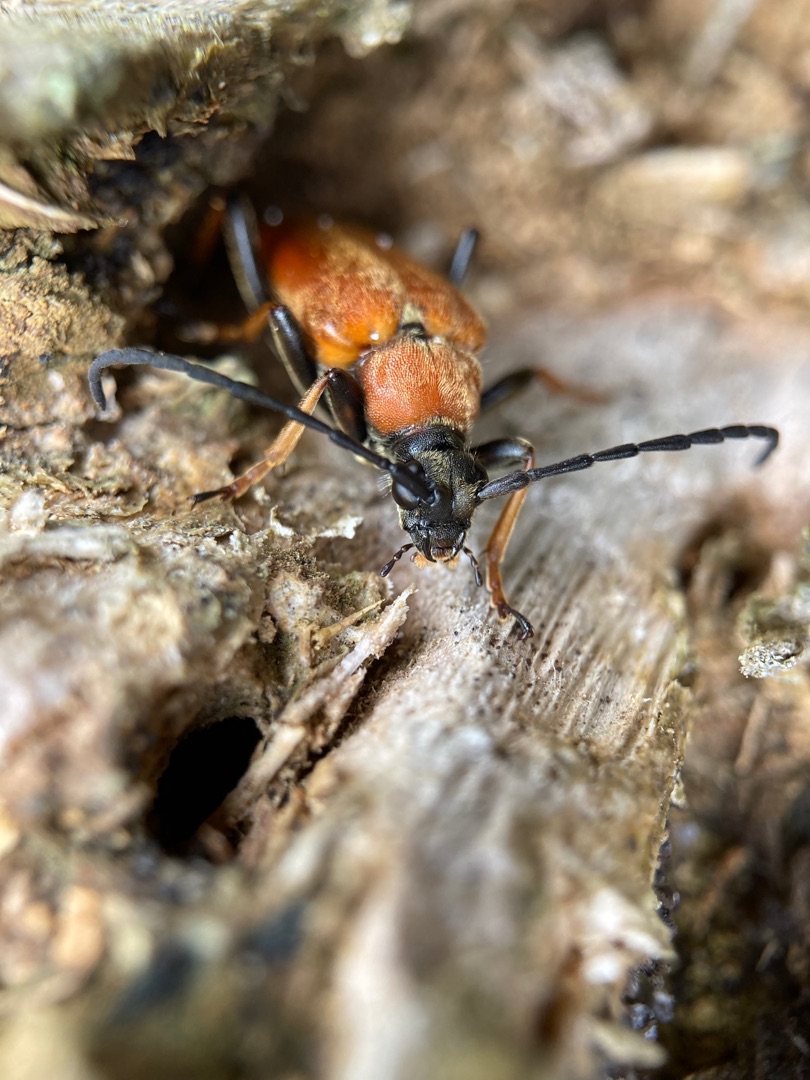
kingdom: Animalia
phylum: Arthropoda
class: Insecta
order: Coleoptera
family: Cerambycidae
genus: Stictoleptura
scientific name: Stictoleptura rubra
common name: Rød blomsterbuk
